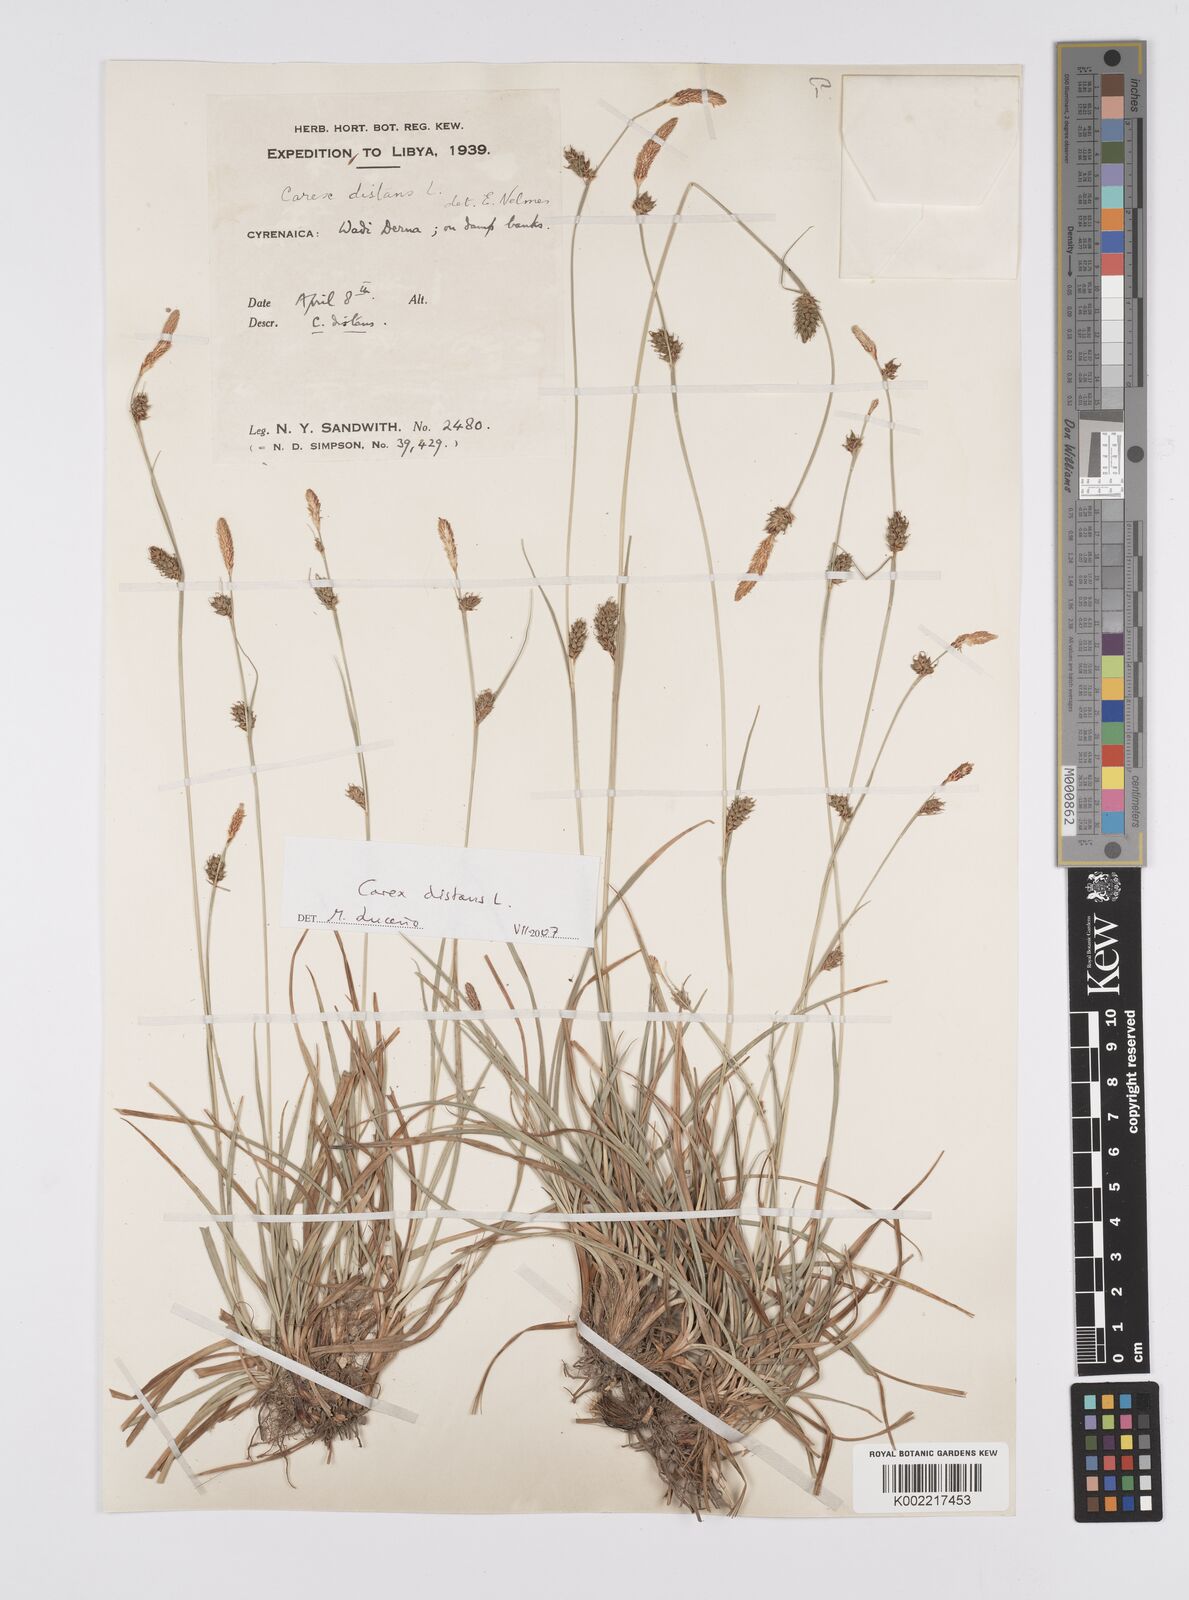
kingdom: Plantae
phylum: Tracheophyta
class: Liliopsida
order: Poales
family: Cyperaceae
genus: Carex
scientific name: Carex distans
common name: Distant sedge
